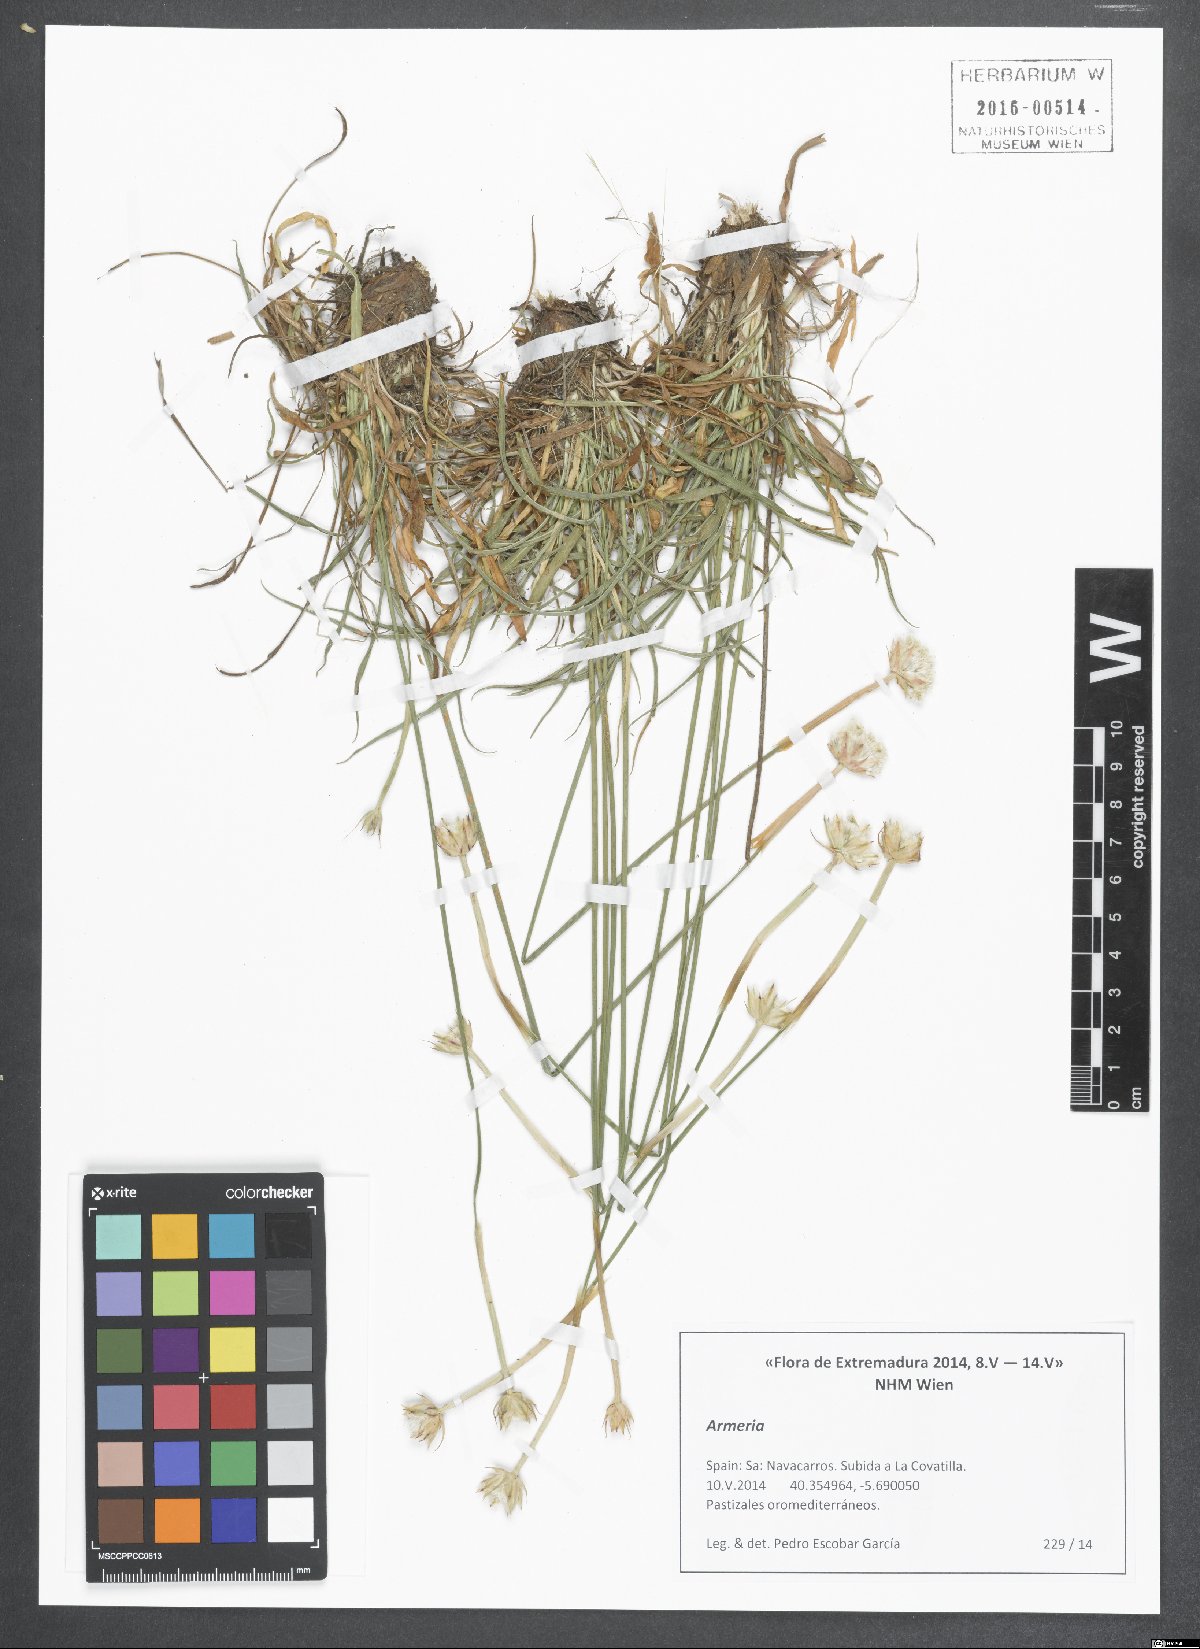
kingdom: Plantae
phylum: Tracheophyta
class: Magnoliopsida
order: Caryophyllales
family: Plumbaginaceae
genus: Armeria
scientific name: Armeria arenaria
